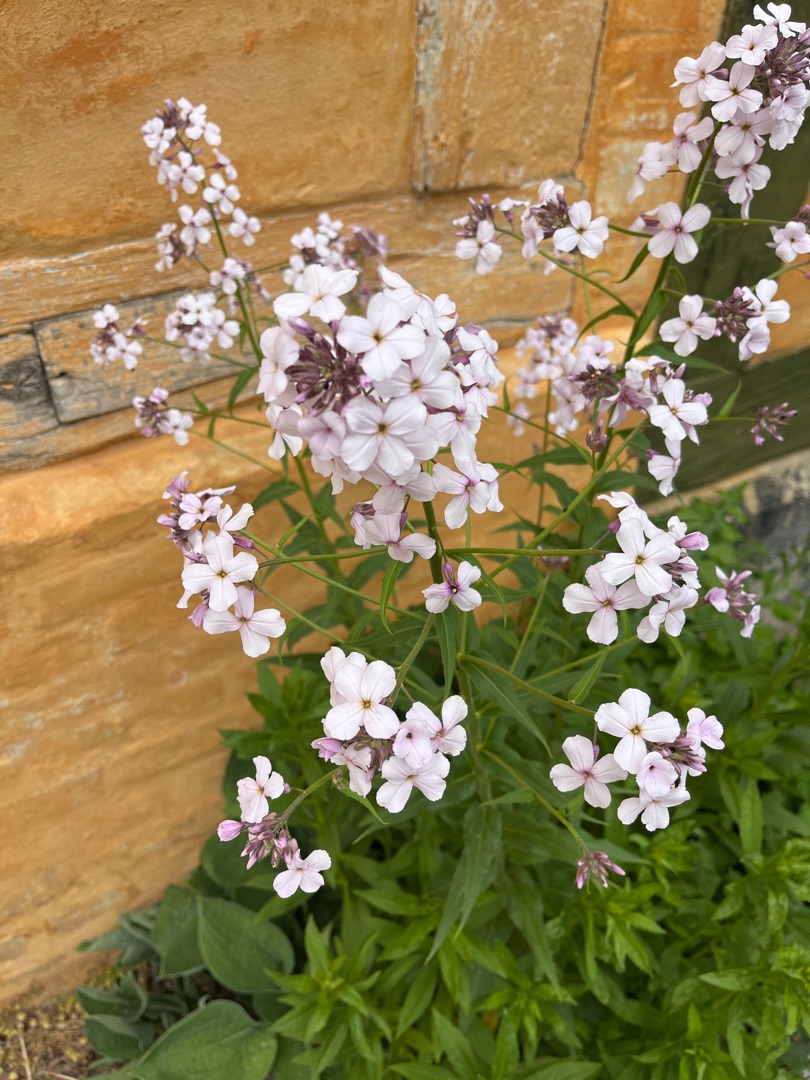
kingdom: Plantae
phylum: Tracheophyta
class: Magnoliopsida
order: Brassicales
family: Brassicaceae
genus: Hesperis
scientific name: Hesperis matronalis
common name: Aftenstjerne
